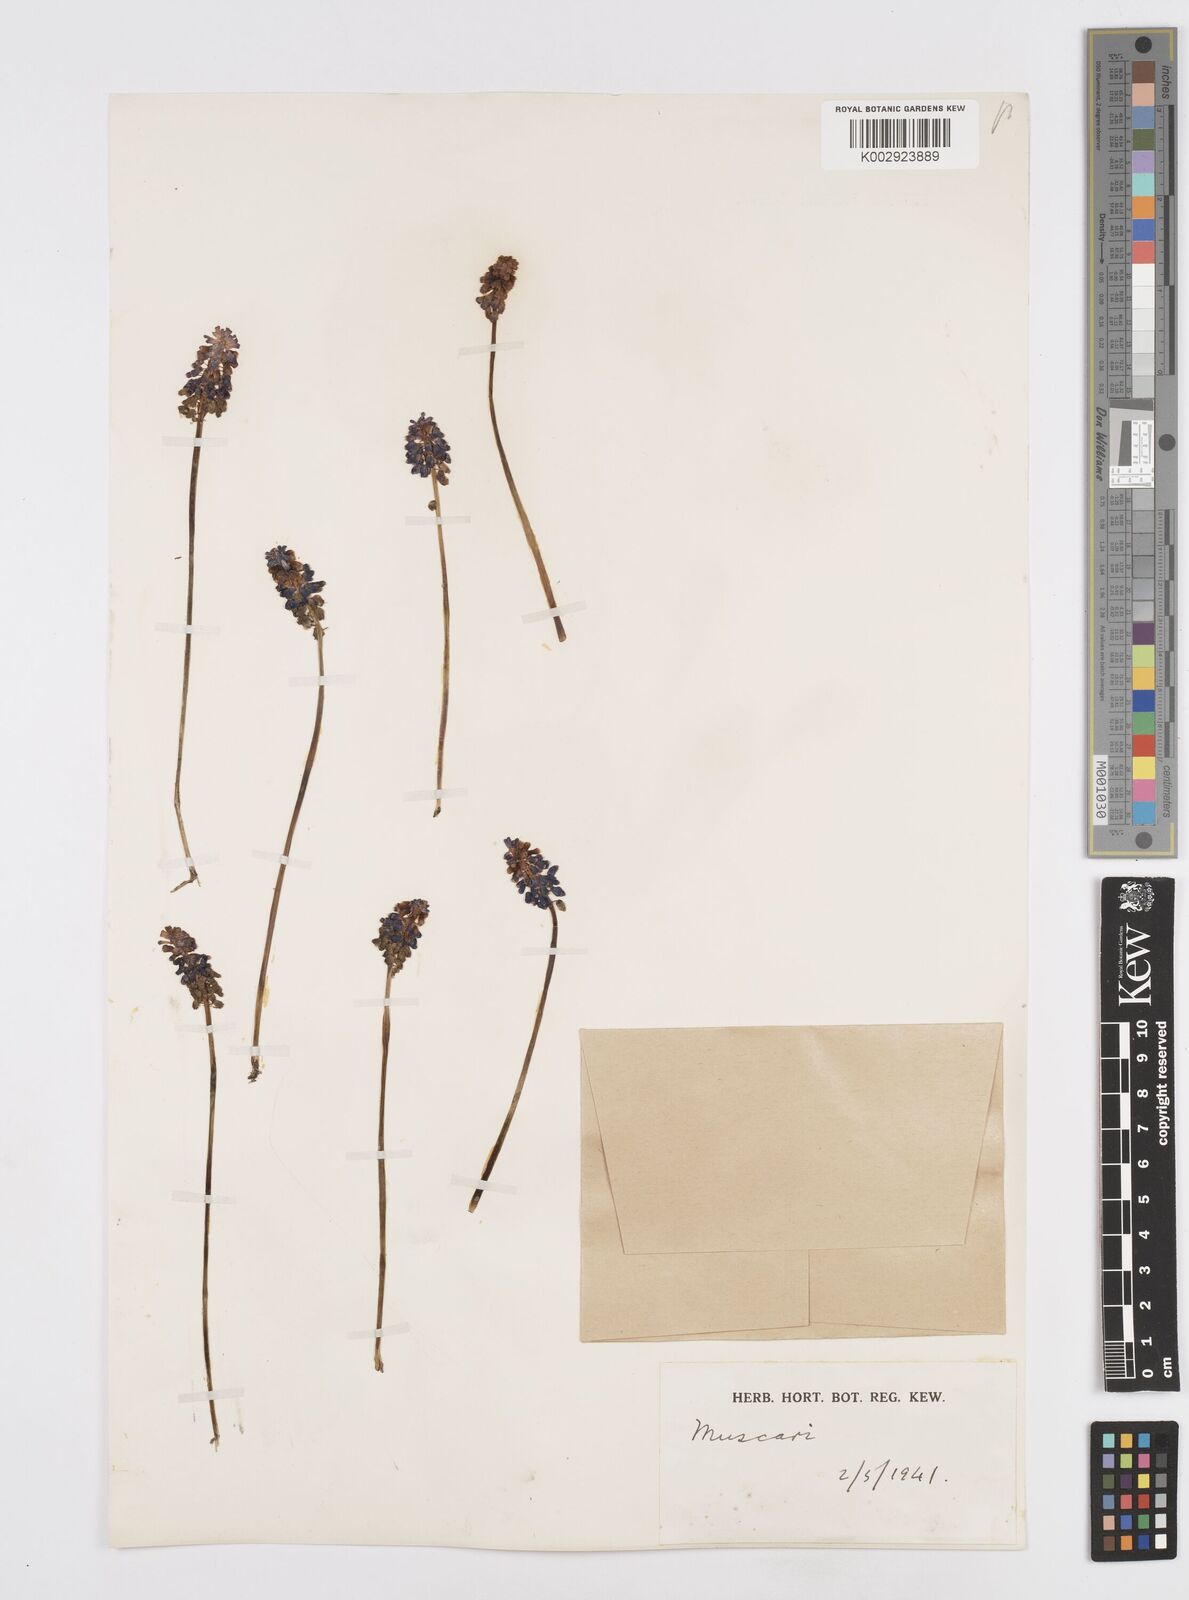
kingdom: Plantae
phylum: Tracheophyta
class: Liliopsida
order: Asparagales
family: Asparagaceae
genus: Muscari
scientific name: Muscari
